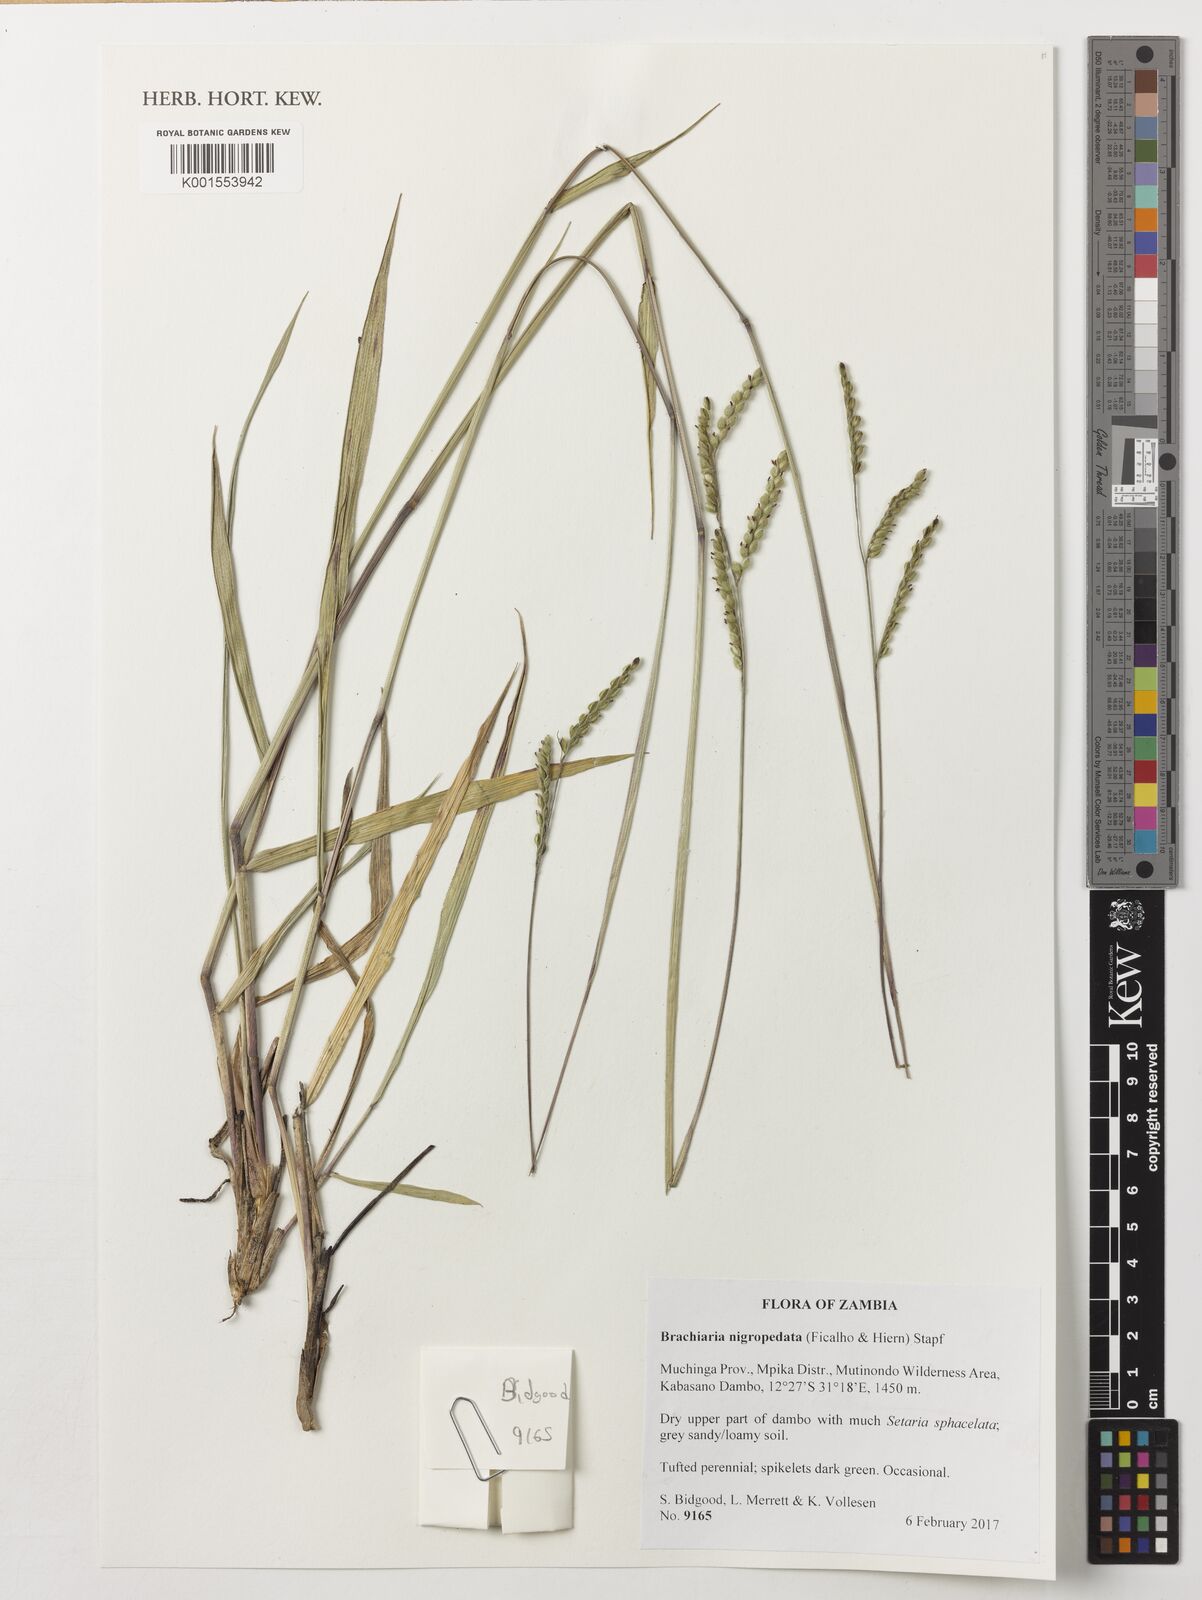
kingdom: Plantae
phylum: Tracheophyta
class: Liliopsida
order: Poales
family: Poaceae
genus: Urochloa
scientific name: Urochloa nigropedata
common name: Spotted signal grass
